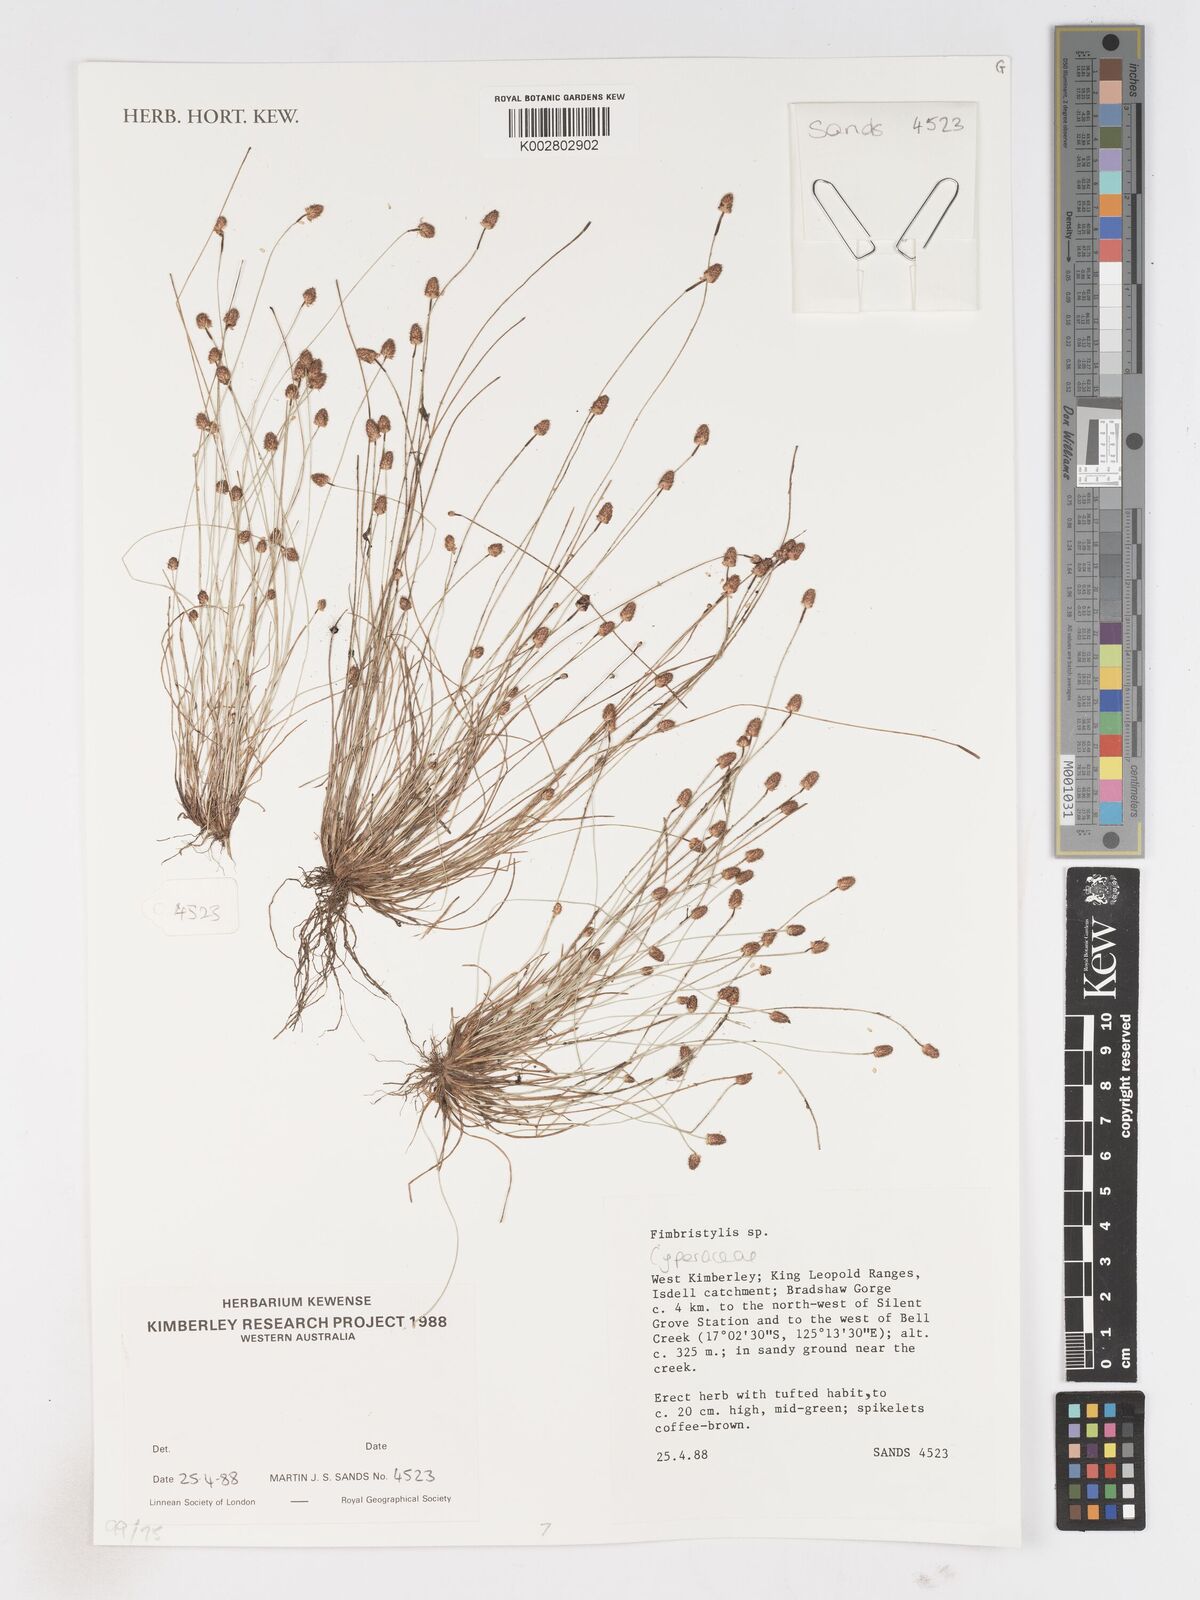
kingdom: Plantae
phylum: Tracheophyta
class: Liliopsida
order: Poales
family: Cyperaceae
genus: Fimbristylis
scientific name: Fimbristylis
